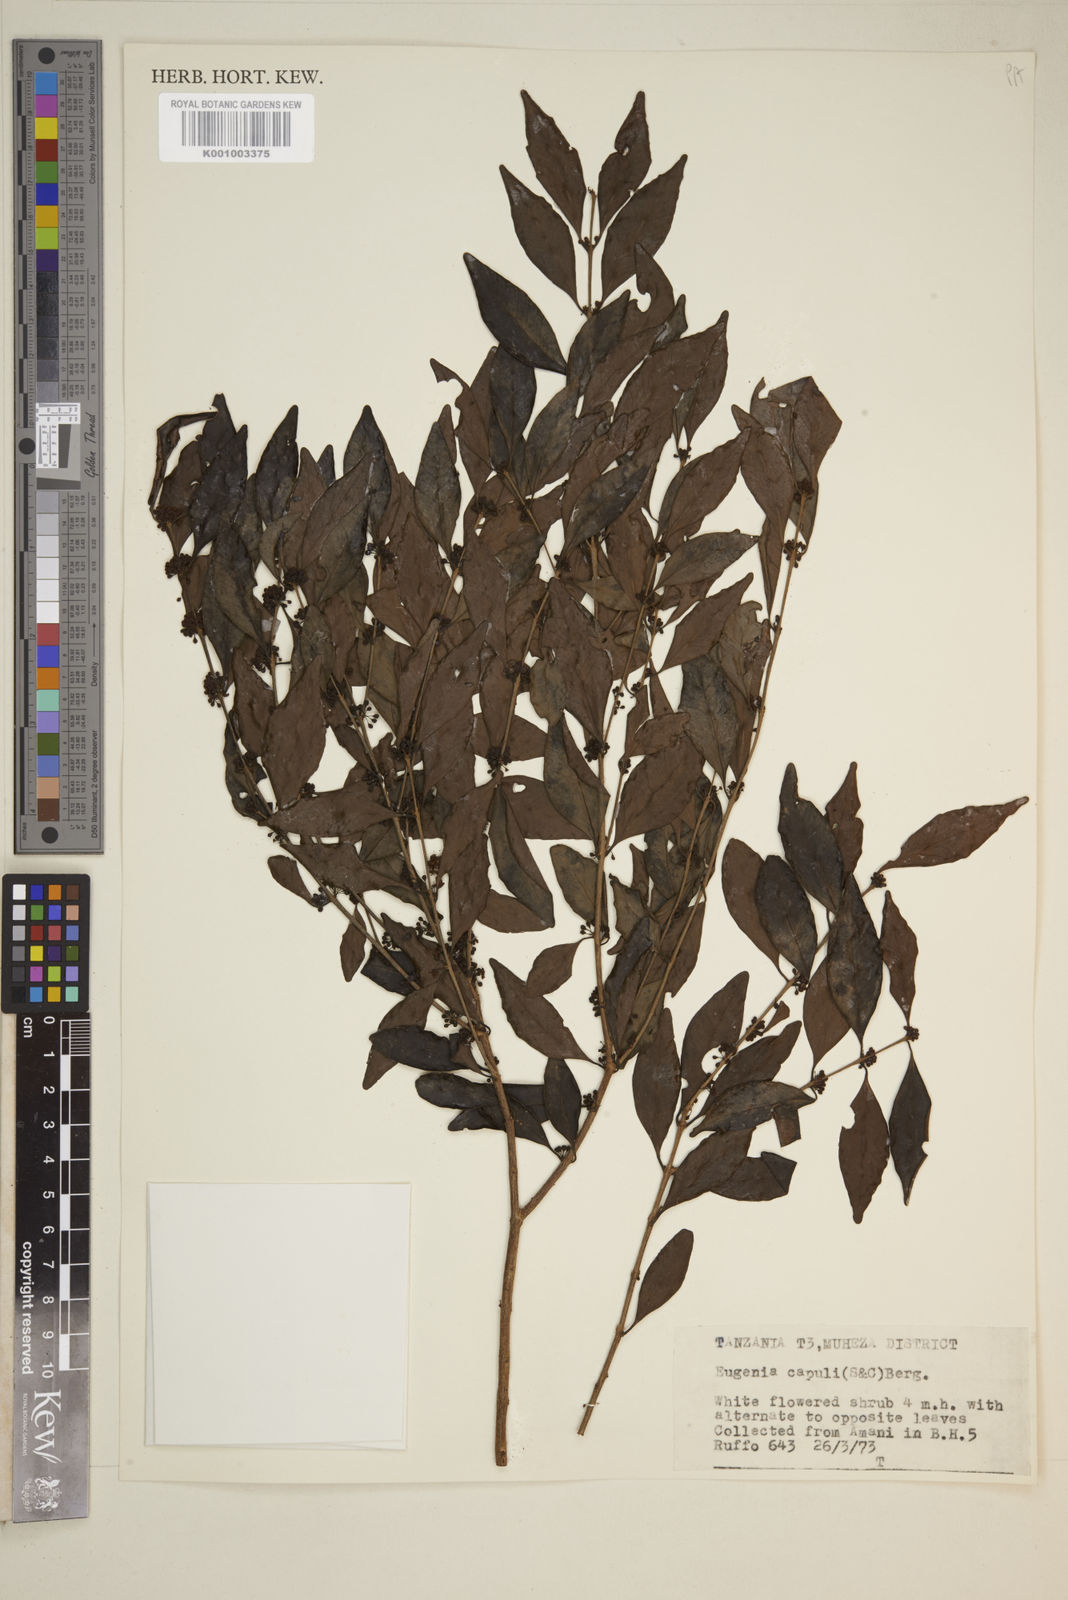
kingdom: Plantae
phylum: Tracheophyta
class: Magnoliopsida
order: Myrtales
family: Myrtaceae
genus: Eugenia
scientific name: Eugenia capuli
